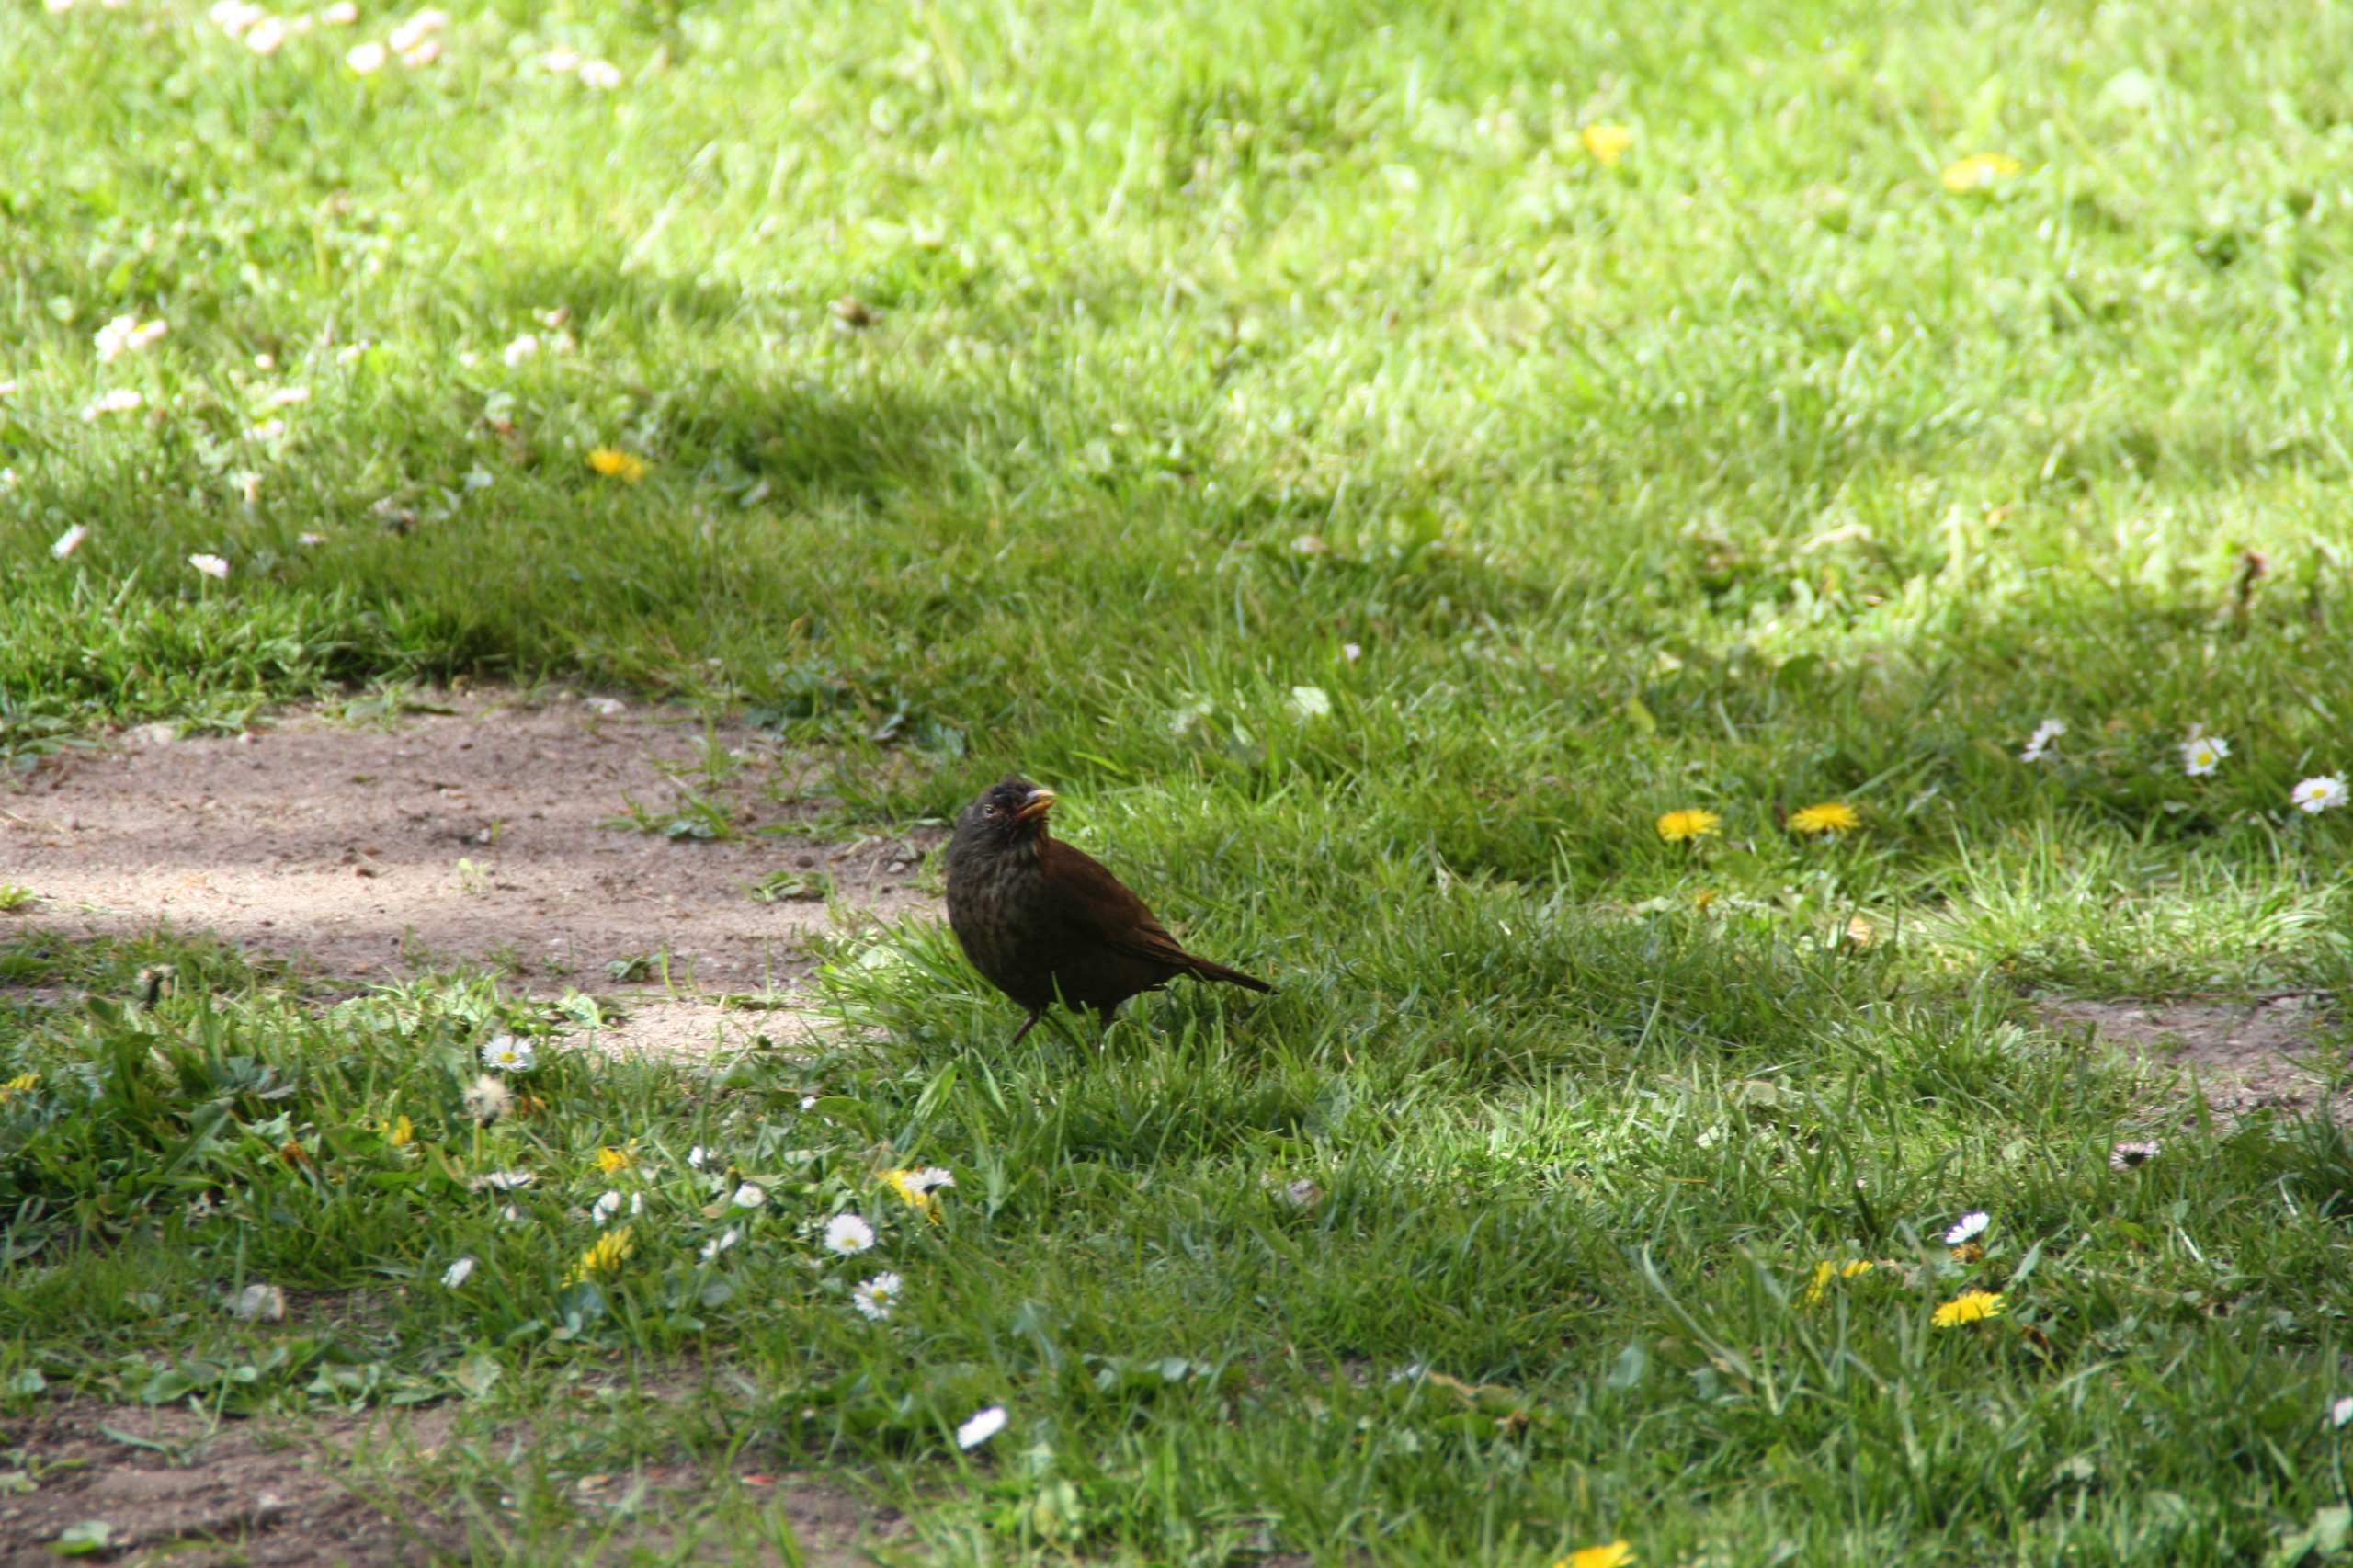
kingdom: Animalia
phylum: Chordata
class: Aves
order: Passeriformes
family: Turdidae
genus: Turdus
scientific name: Turdus merula
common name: Solsort
